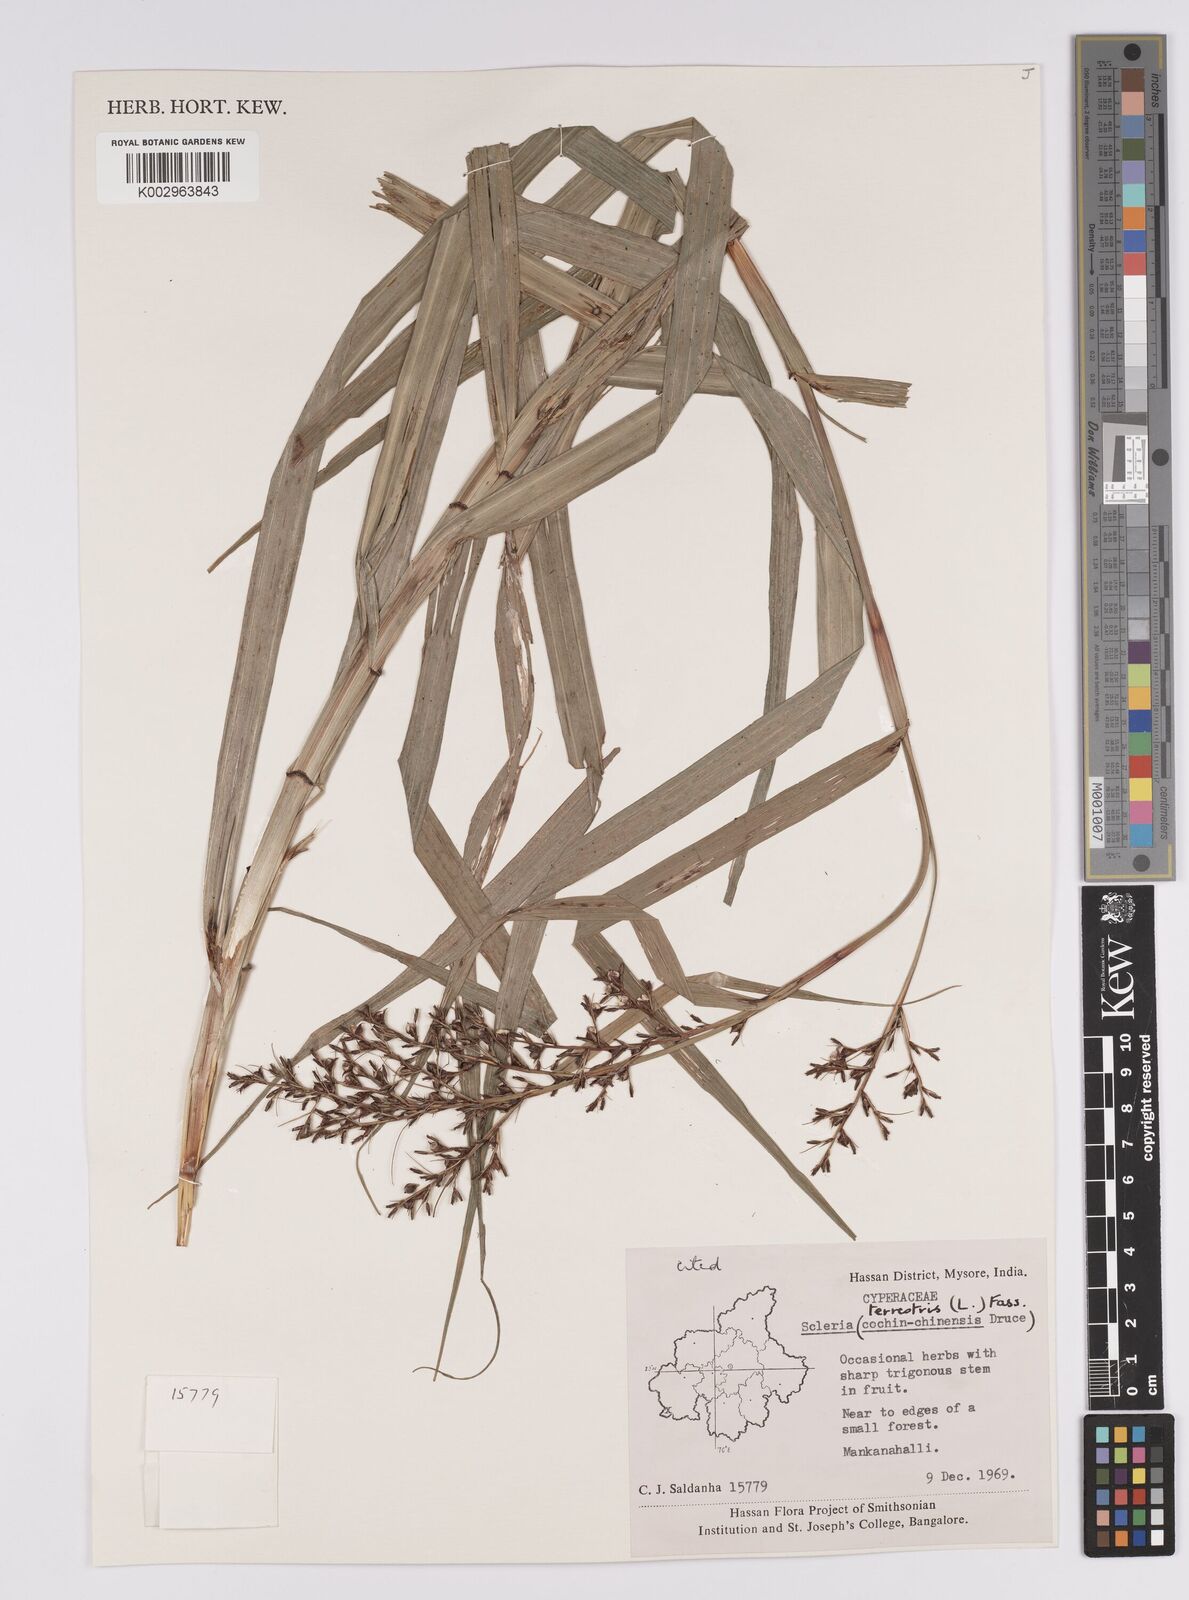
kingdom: Plantae
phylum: Tracheophyta
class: Liliopsida
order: Poales
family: Cyperaceae
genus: Scleria
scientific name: Scleria terrestris
